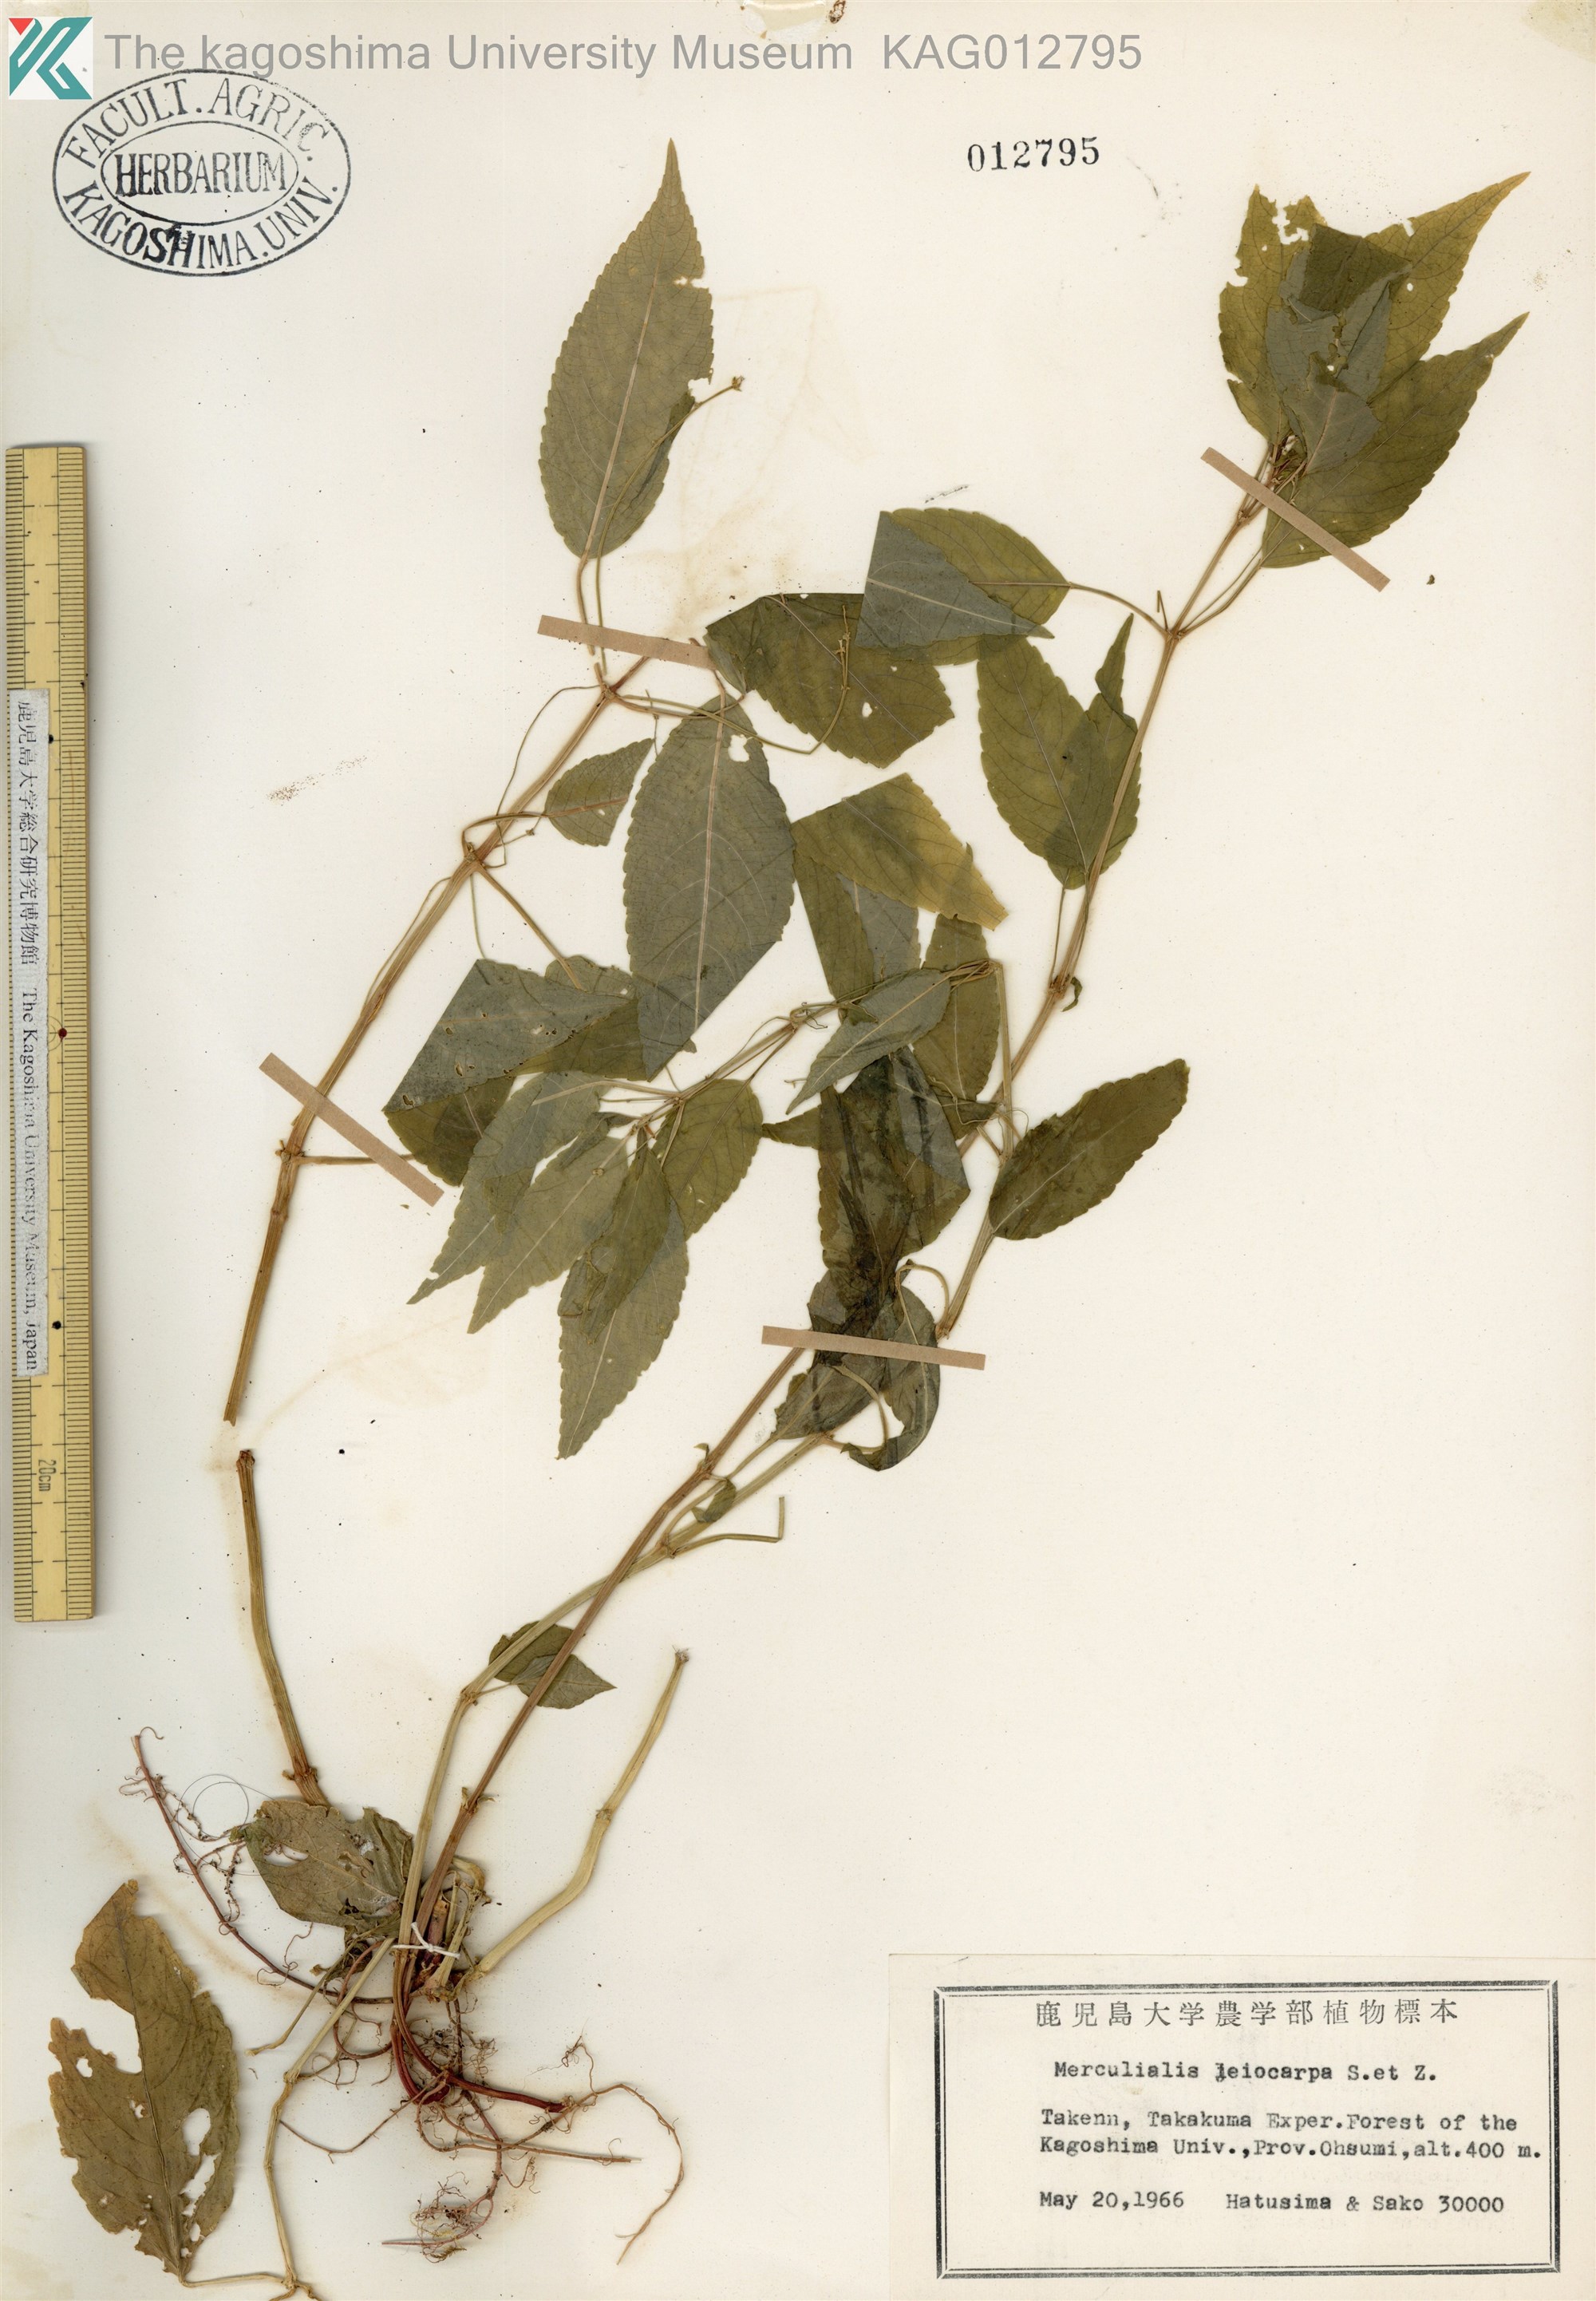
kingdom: Plantae
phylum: Tracheophyta
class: Magnoliopsida
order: Malpighiales
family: Euphorbiaceae
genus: Mercurialis
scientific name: Mercurialis leiocarpa
